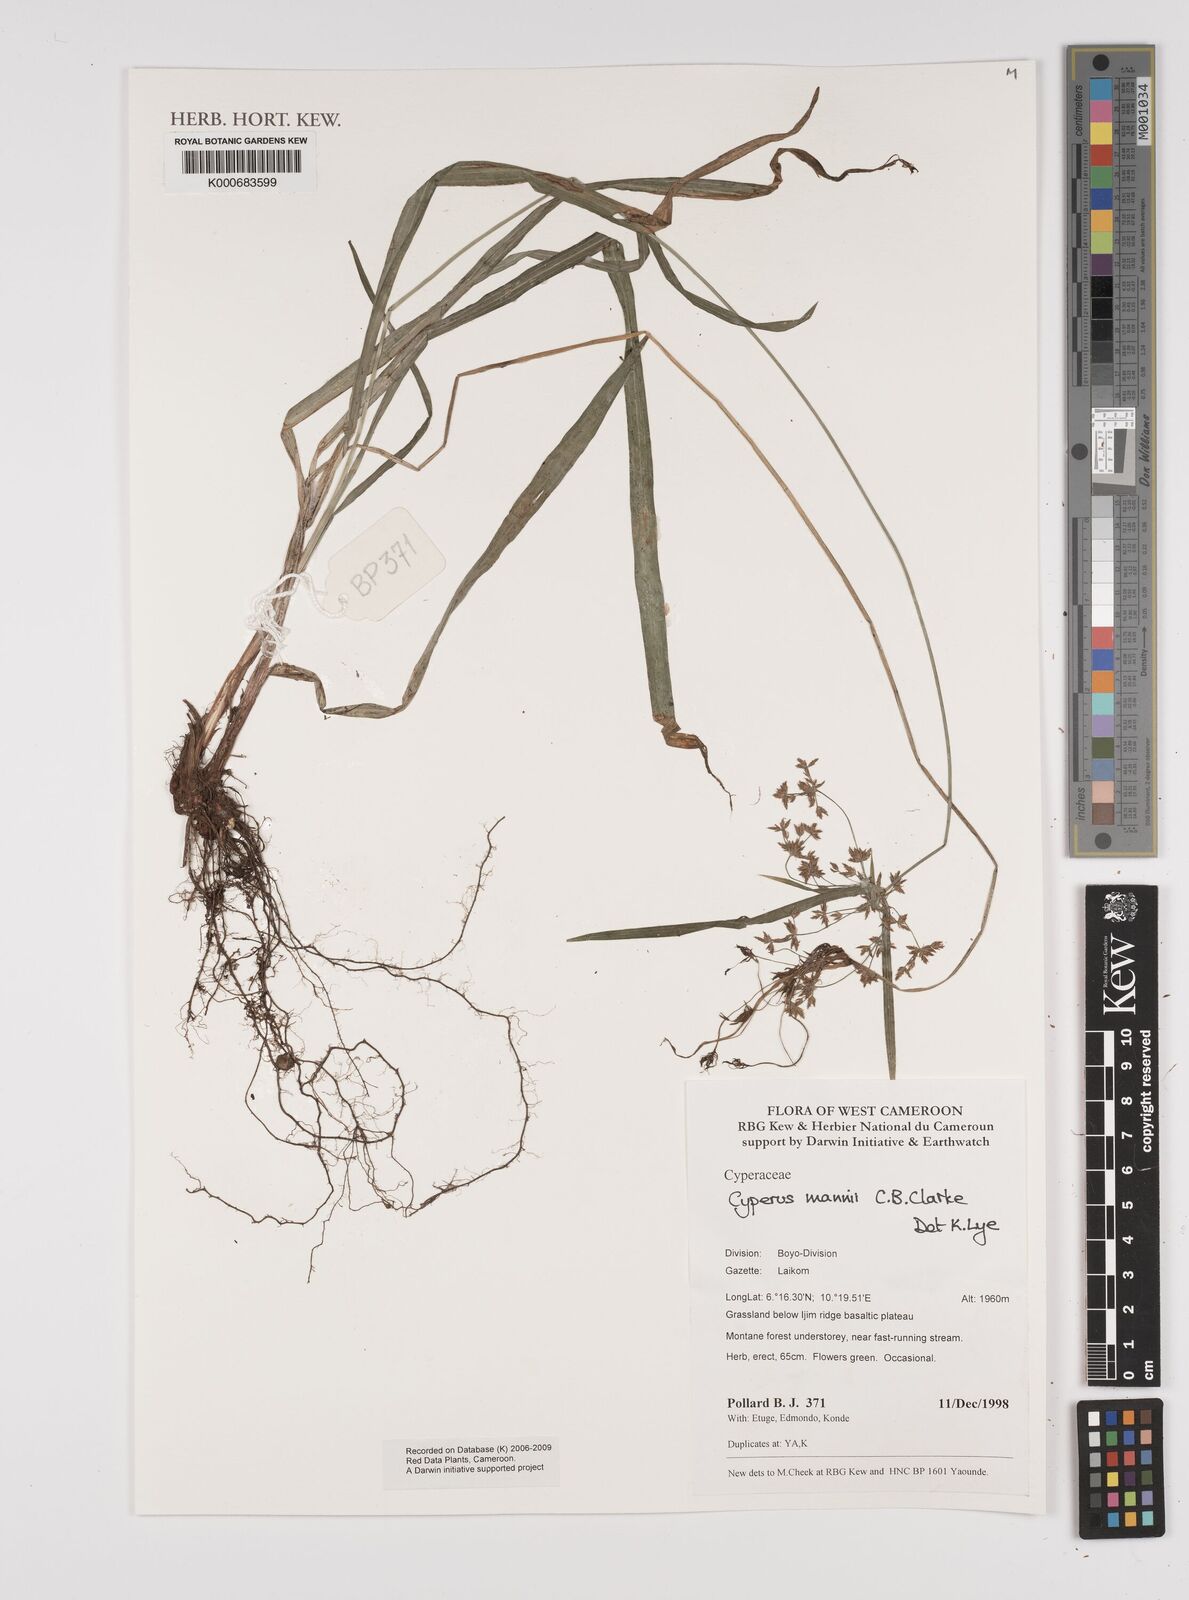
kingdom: Plantae
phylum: Tracheophyta
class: Liliopsida
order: Poales
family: Cyperaceae
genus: Cyperus
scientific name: Cyperus baronii
